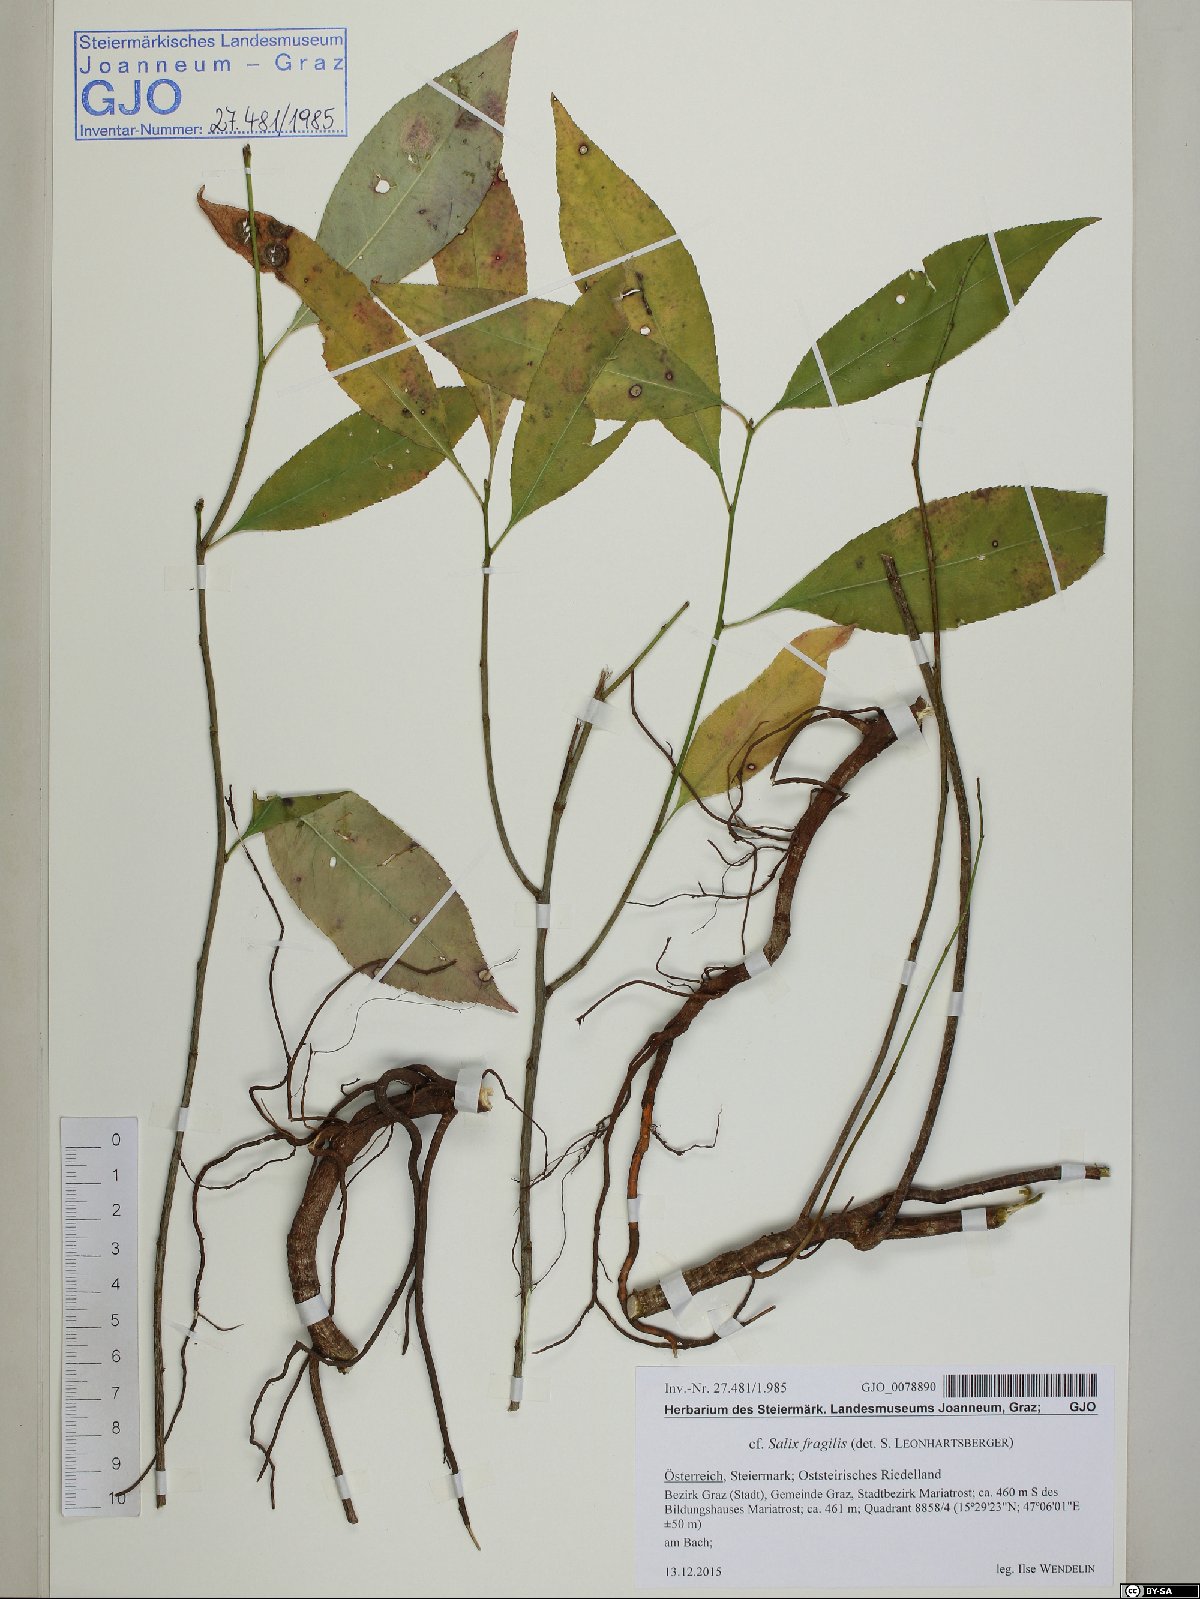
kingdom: Plantae
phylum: Tracheophyta
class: Magnoliopsida
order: Malpighiales
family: Salicaceae
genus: Salix
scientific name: Salix fragilis
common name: Crack willow
